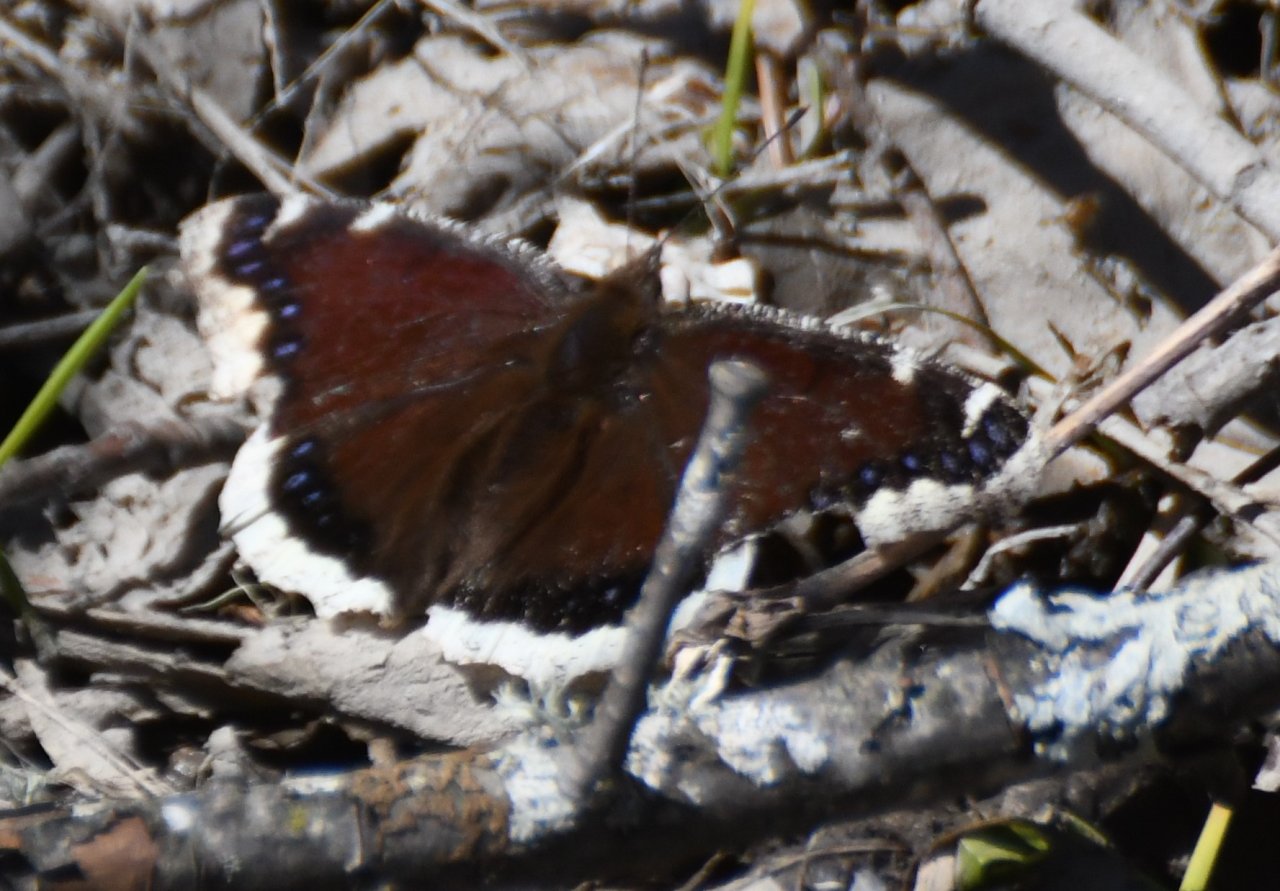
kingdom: Animalia
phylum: Arthropoda
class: Insecta
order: Lepidoptera
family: Nymphalidae
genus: Nymphalis
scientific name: Nymphalis antiopa
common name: Mourning Cloak
